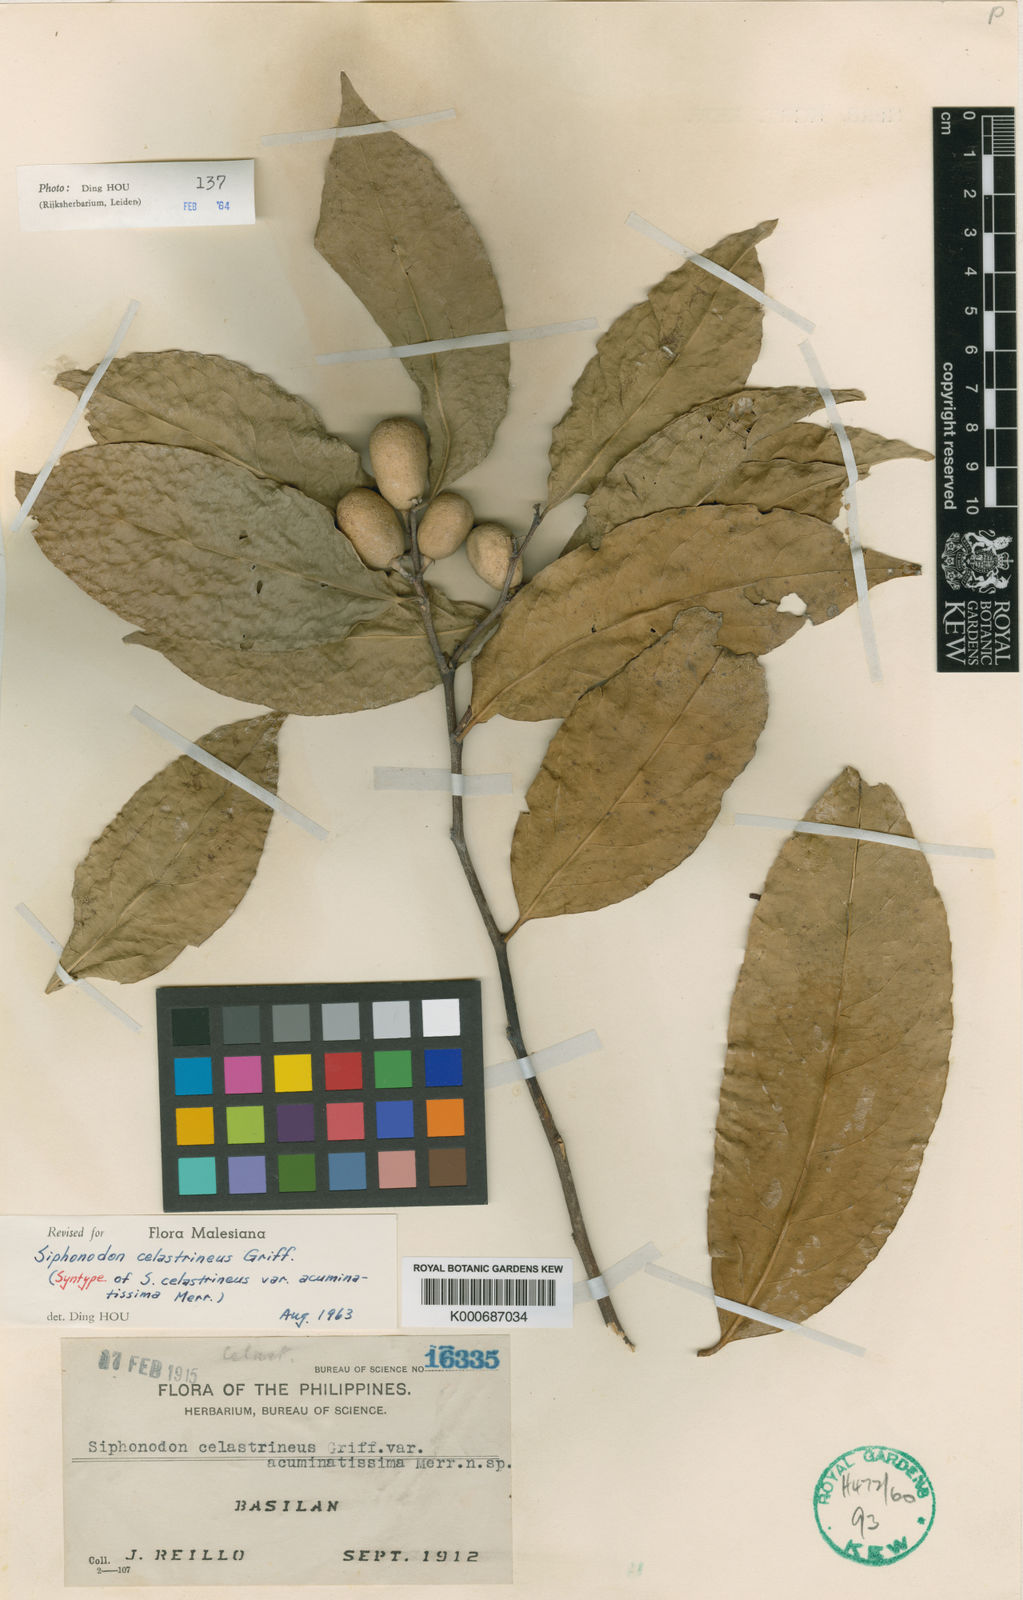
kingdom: Plantae
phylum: Tracheophyta
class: Magnoliopsida
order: Celastrales
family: Celastraceae
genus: Siphonodon
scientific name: Siphonodon celastrineus
